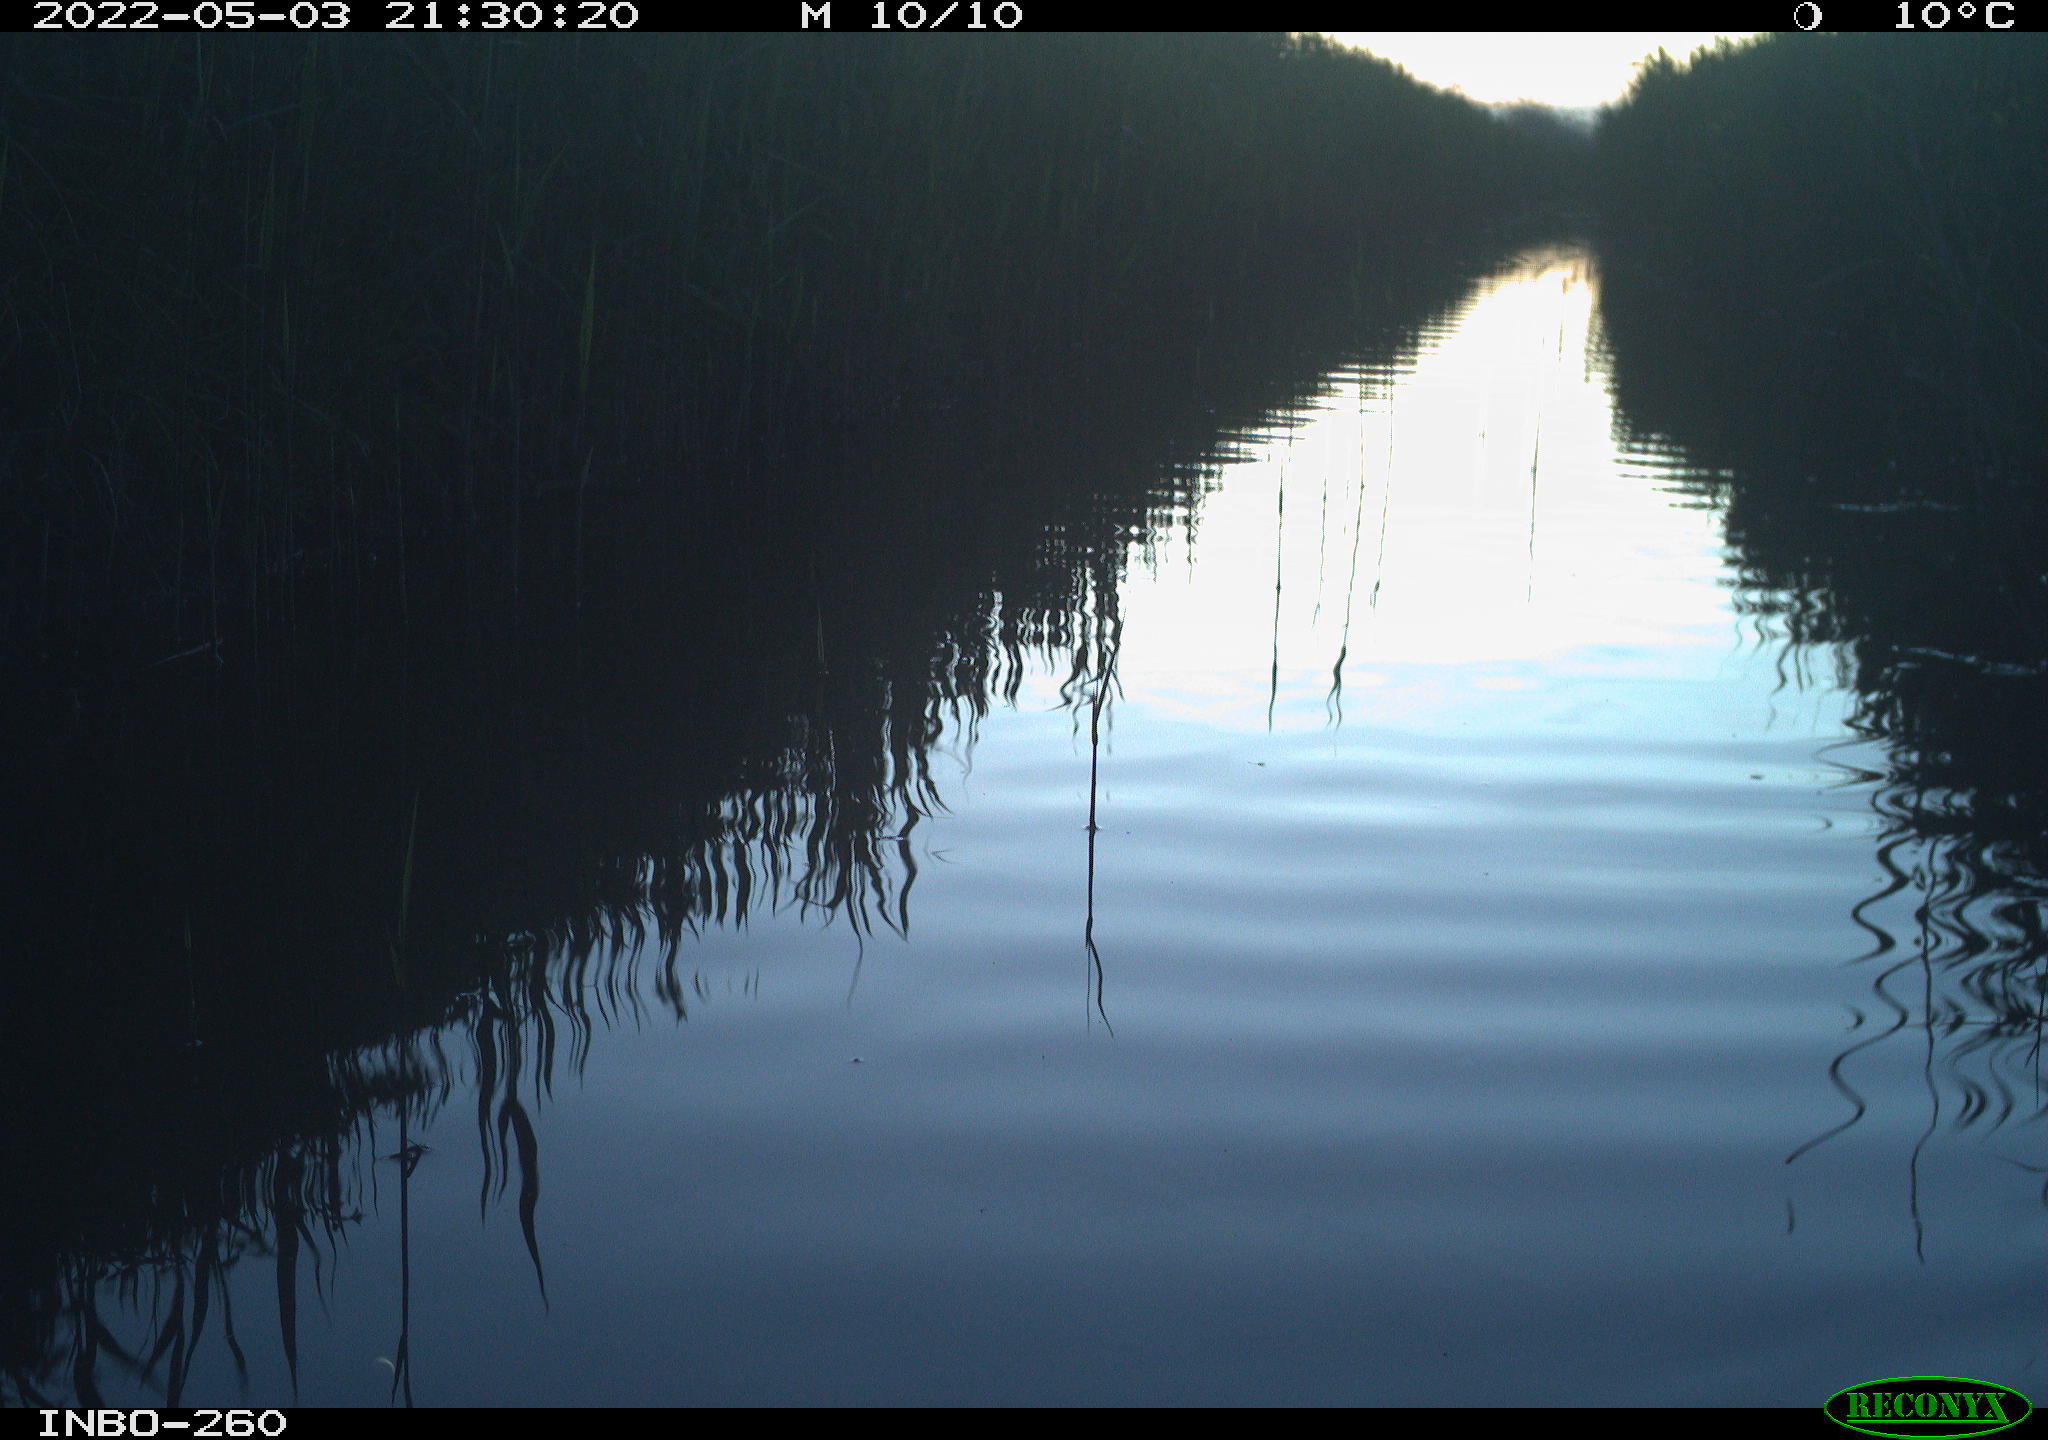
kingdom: Animalia
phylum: Chordata
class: Aves
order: Gruiformes
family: Rallidae
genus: Fulica
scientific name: Fulica atra
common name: Eurasian coot
